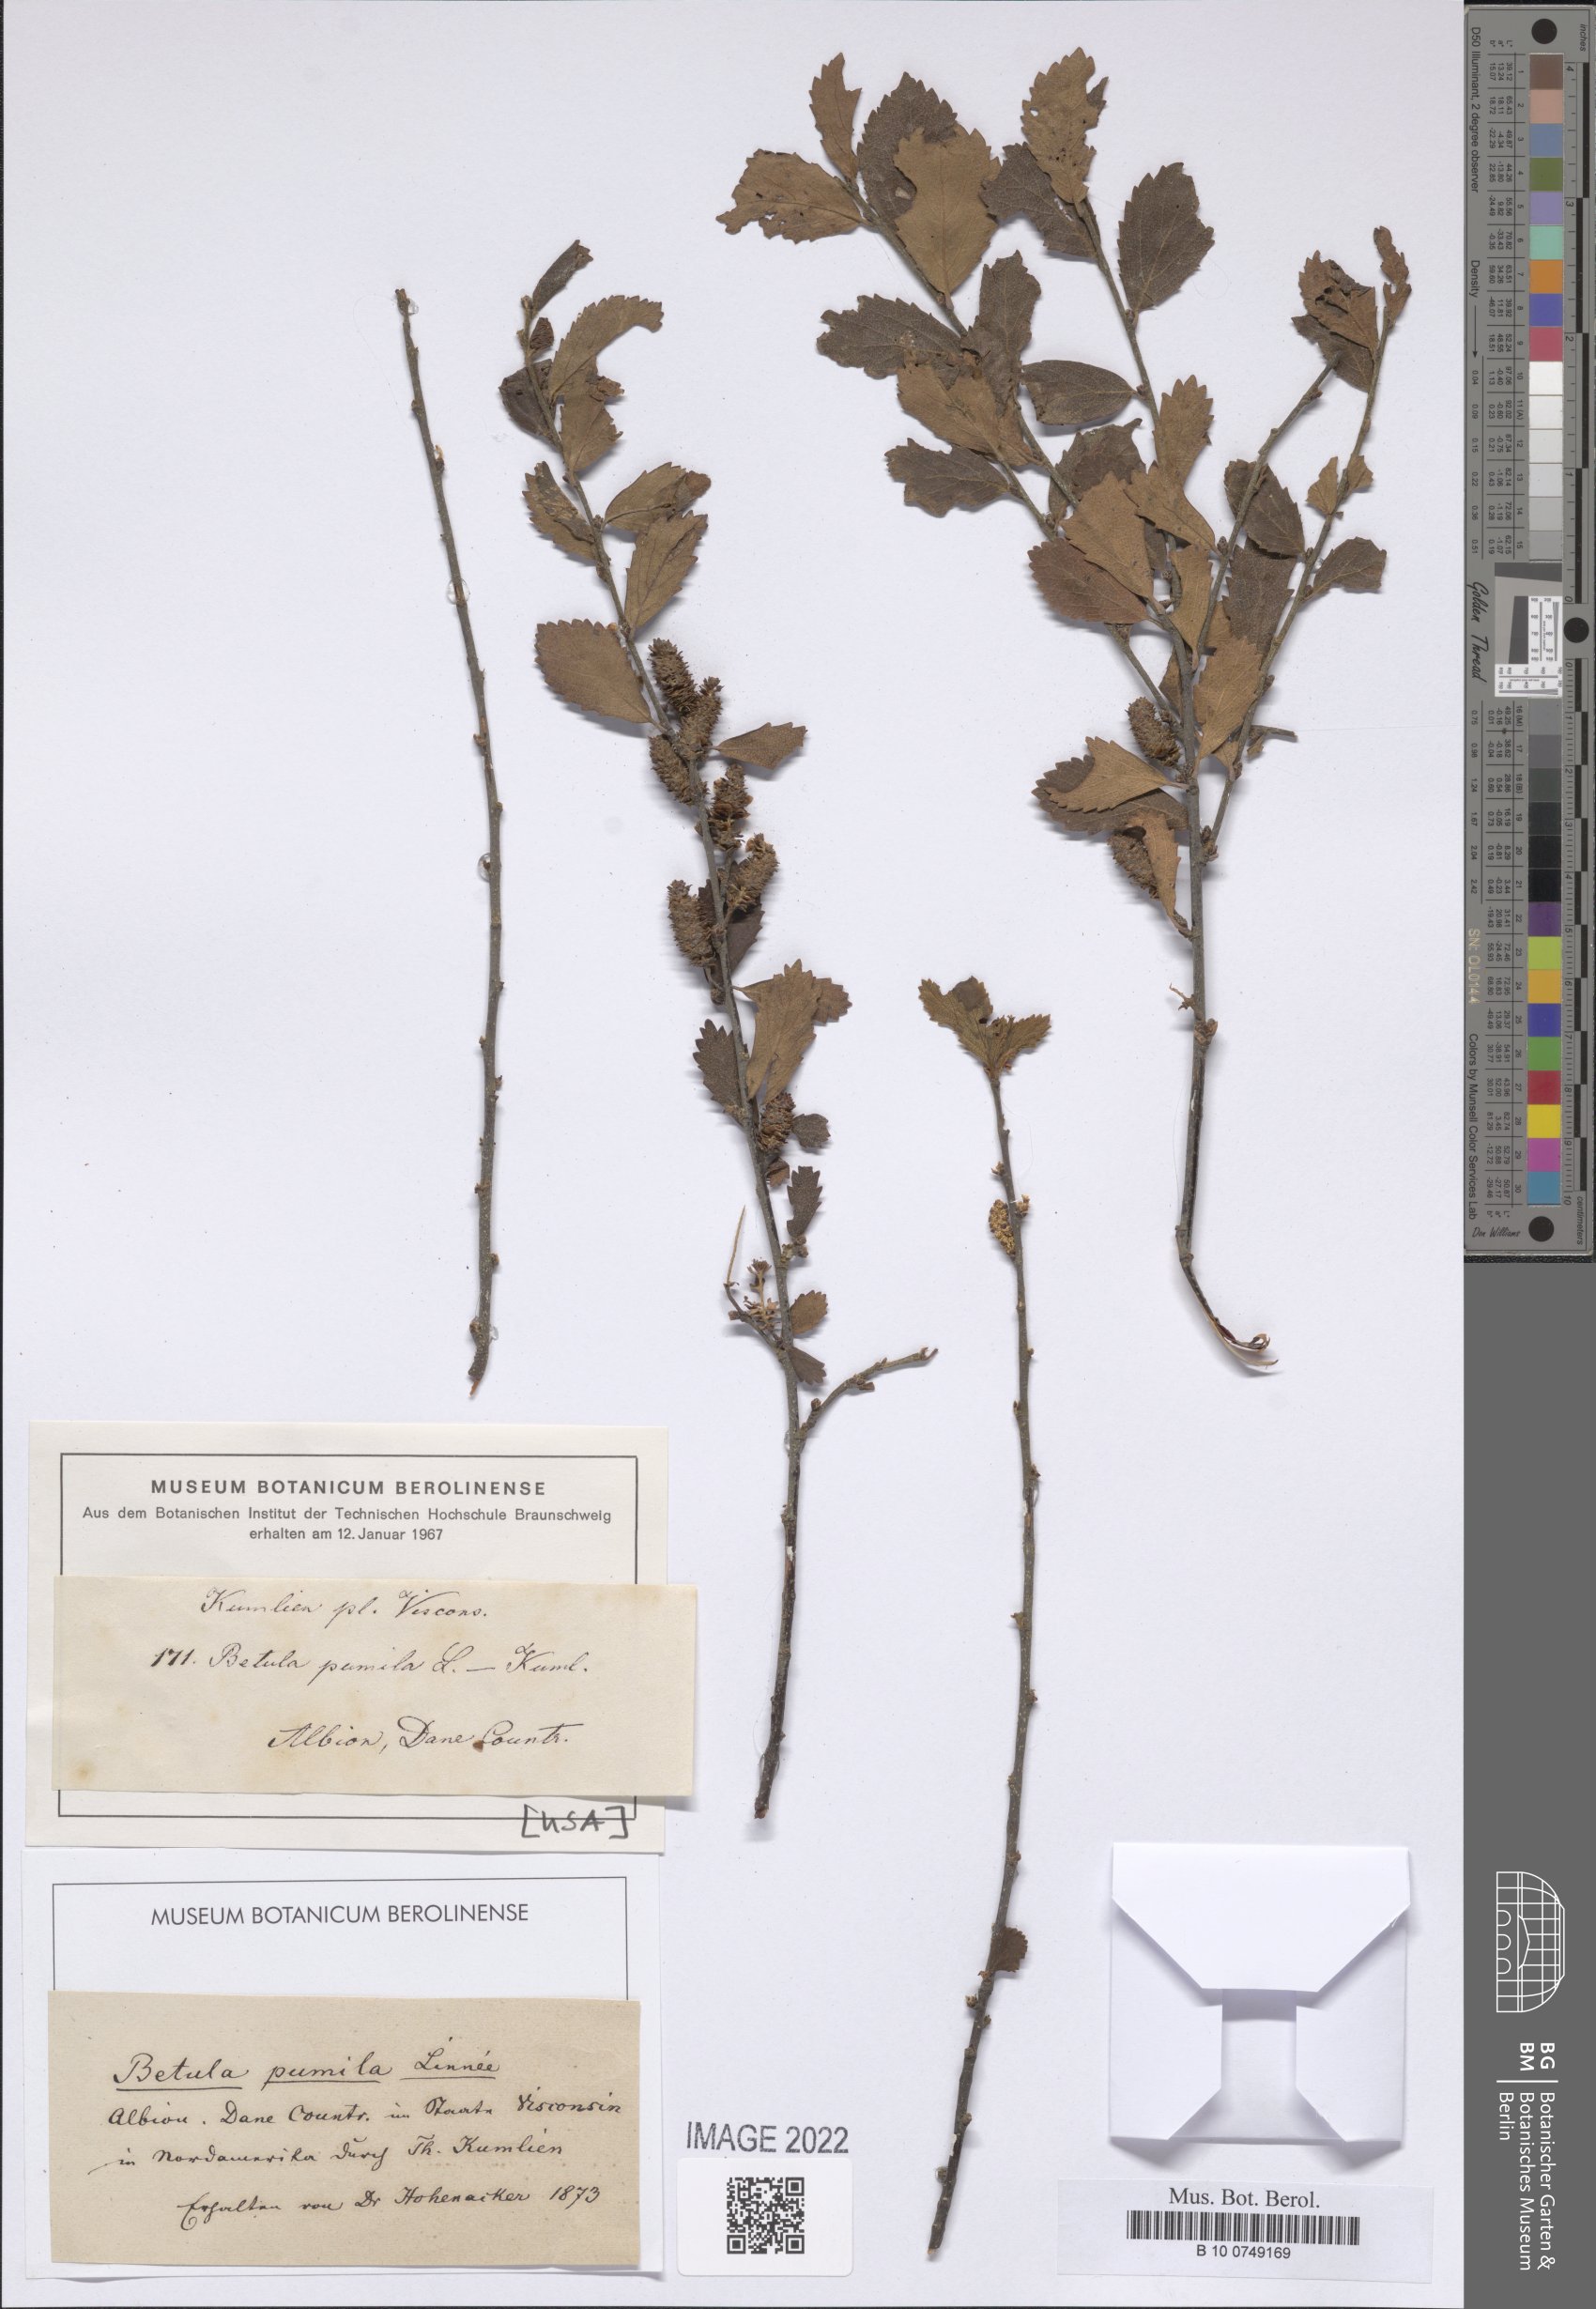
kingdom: Plantae
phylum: Tracheophyta
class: Magnoliopsida
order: Fagales
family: Betulaceae
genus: Betula
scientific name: Betula pumila
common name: Bog birch
